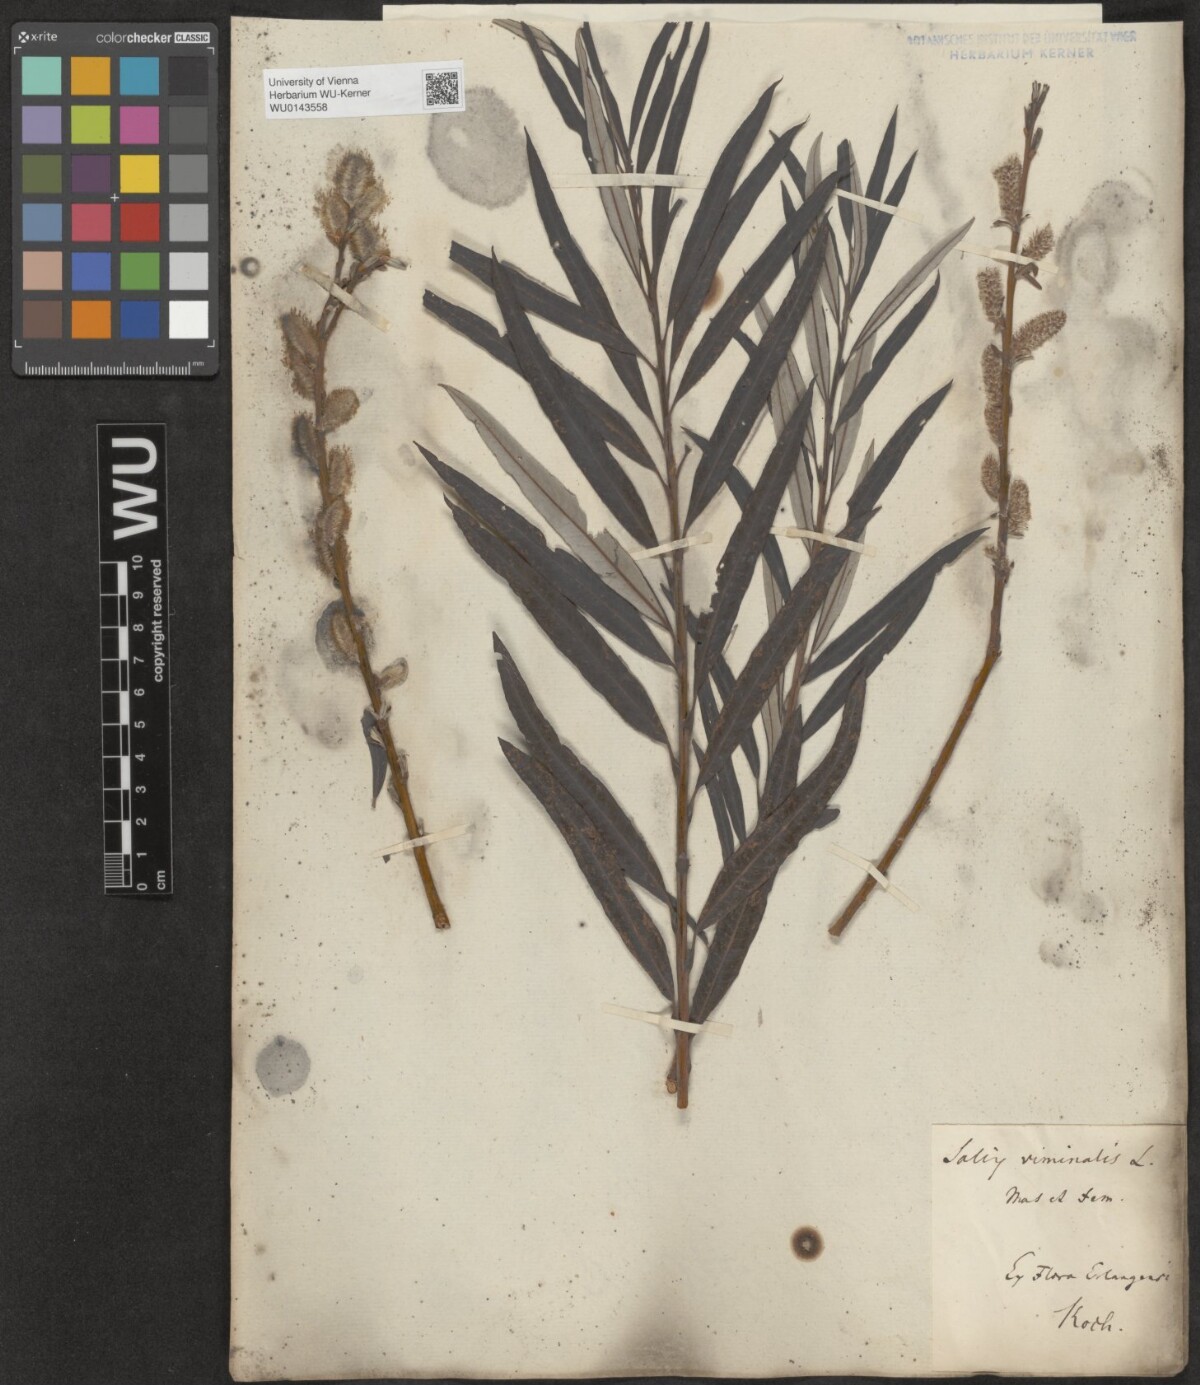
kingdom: Plantae
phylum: Tracheophyta
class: Magnoliopsida
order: Malpighiales
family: Salicaceae
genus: Salix
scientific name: Salix viminalis
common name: Osier
